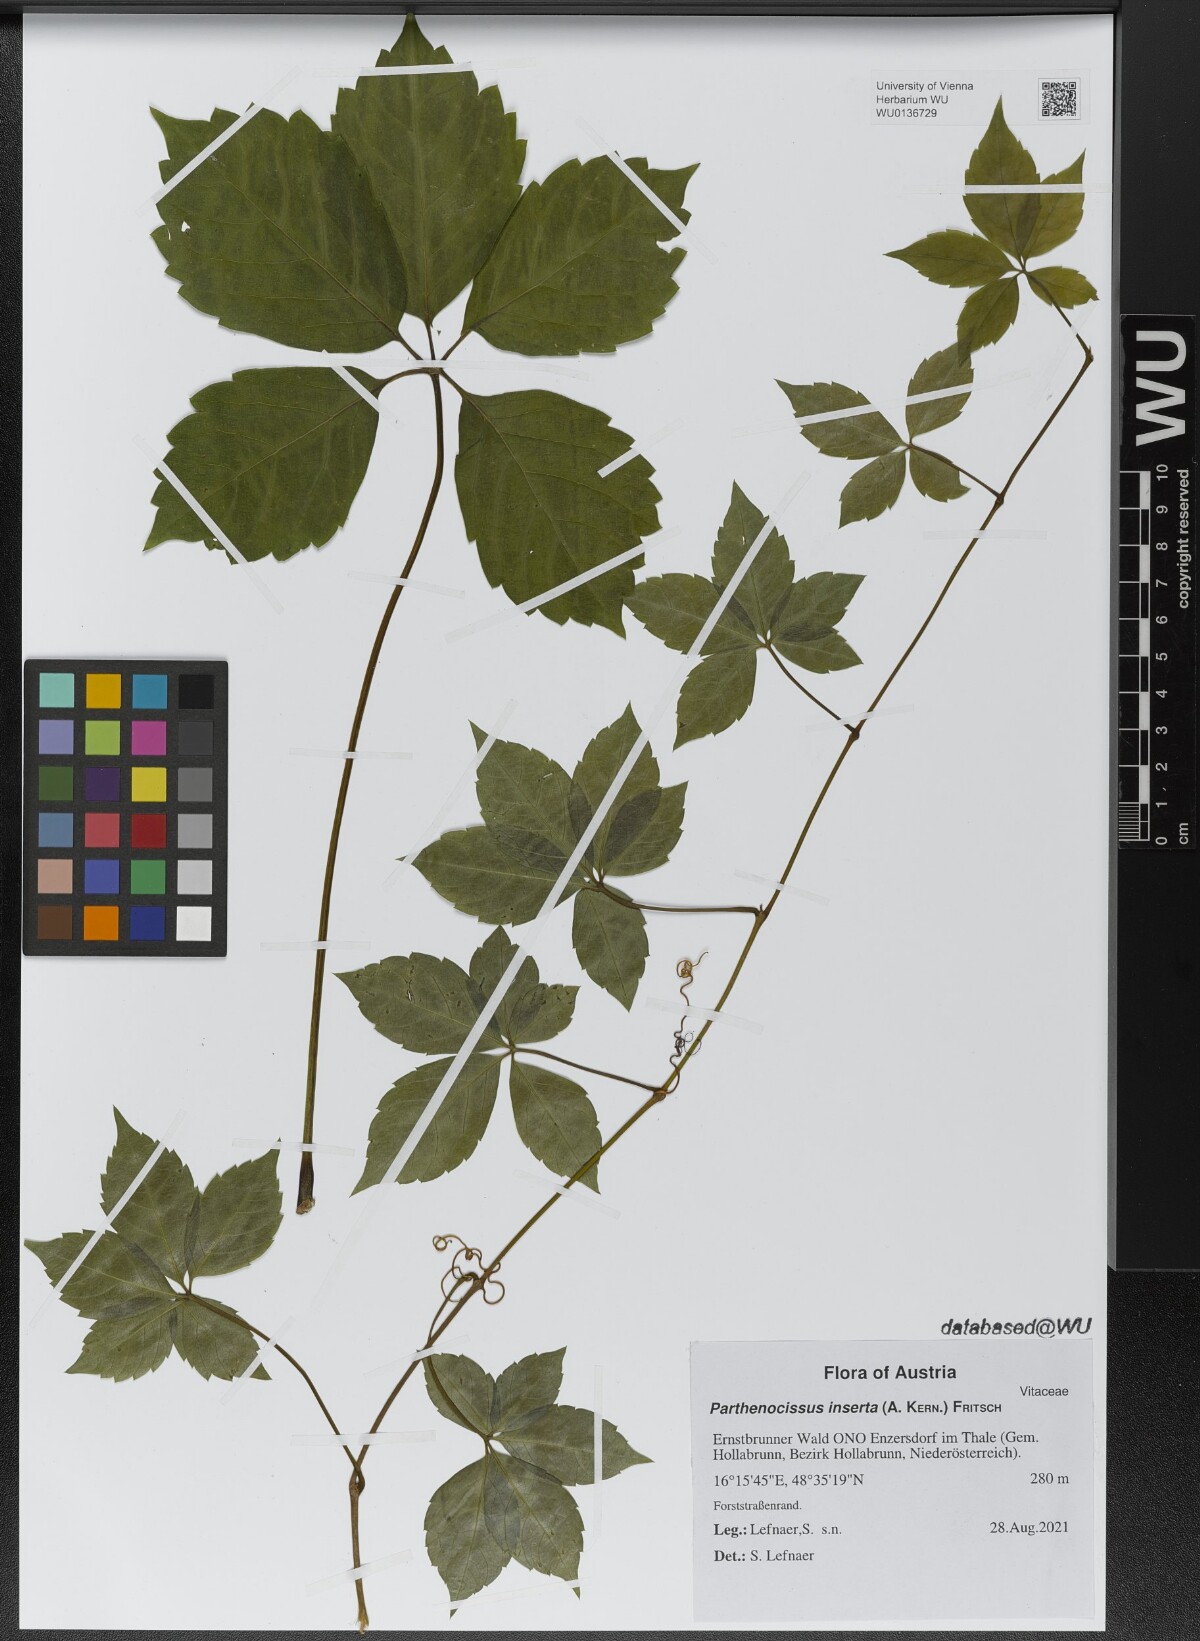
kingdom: Plantae
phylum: Tracheophyta
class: Magnoliopsida
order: Vitales
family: Vitaceae
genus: Parthenocissus
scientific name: Parthenocissus inserta
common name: False virginia-creeper
